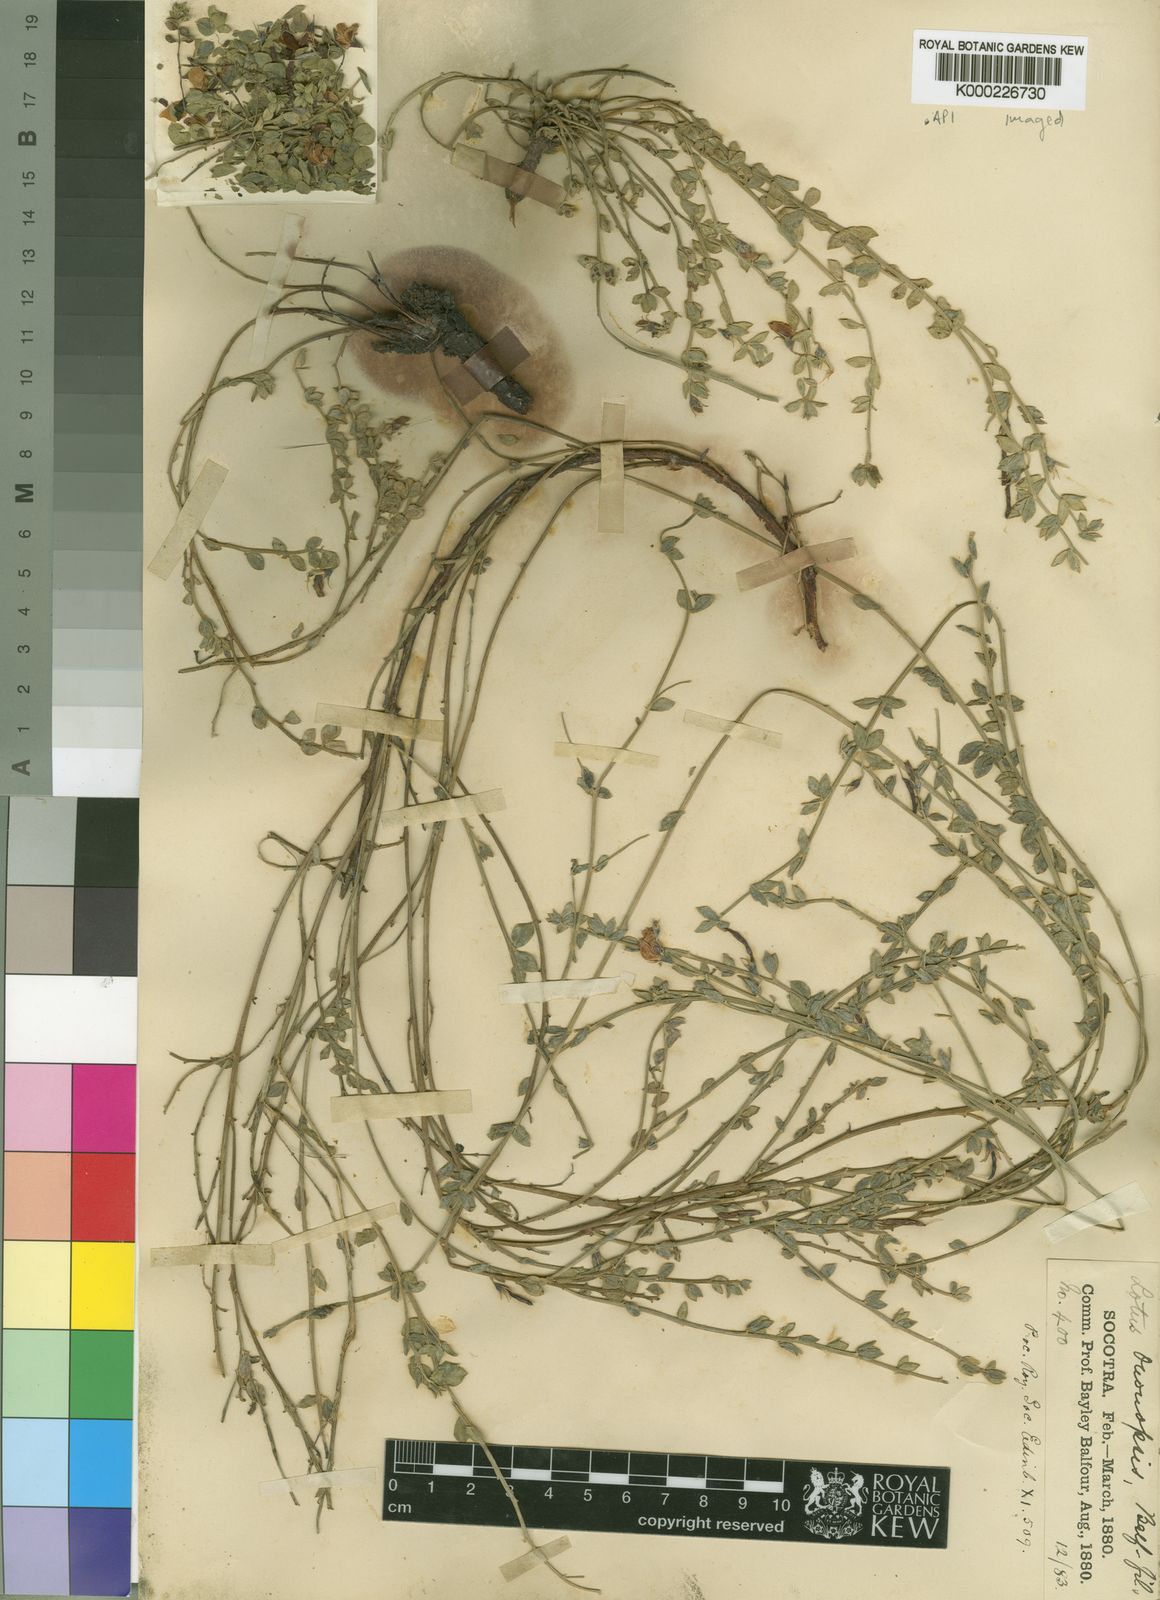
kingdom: Plantae
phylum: Tracheophyta
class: Magnoliopsida
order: Fabales
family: Fabaceae
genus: Lotus
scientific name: Lotus ononopsis
